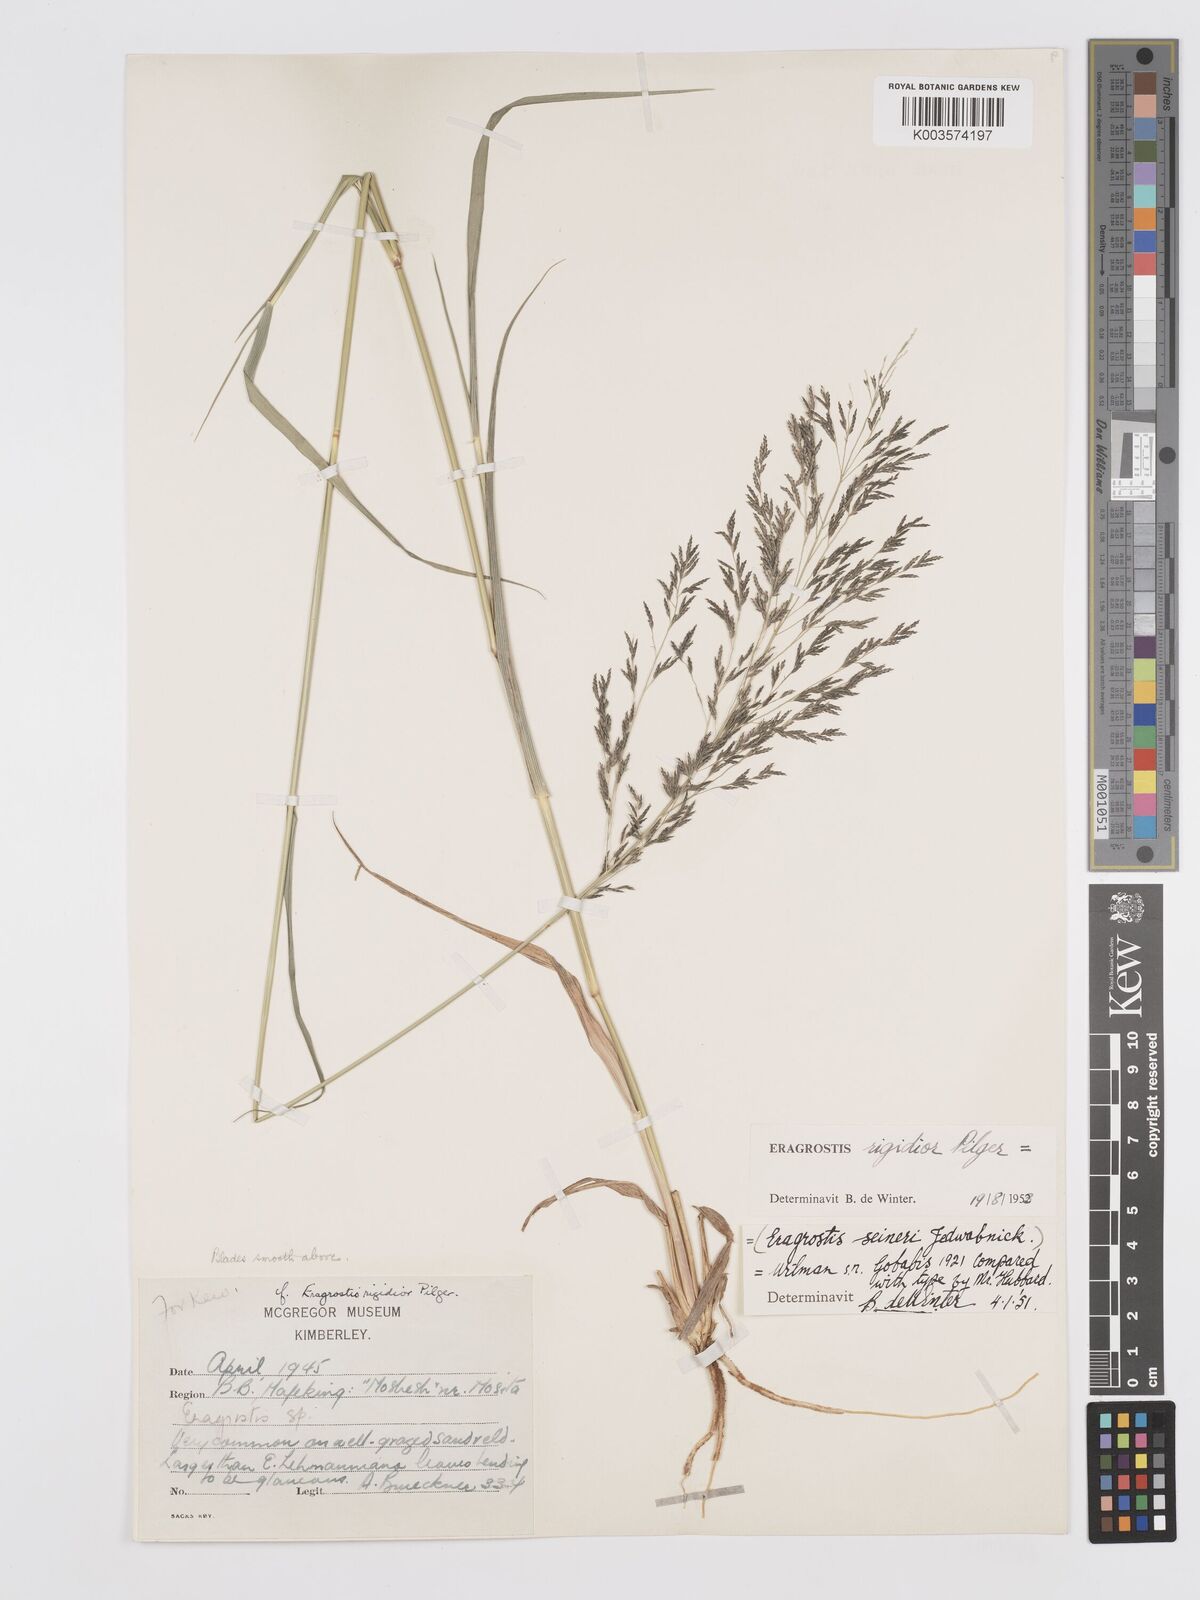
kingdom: Plantae
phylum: Tracheophyta
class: Liliopsida
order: Poales
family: Poaceae
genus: Eragrostis
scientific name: Eragrostis cylindriflora
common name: Cylinderflower lovegrass
